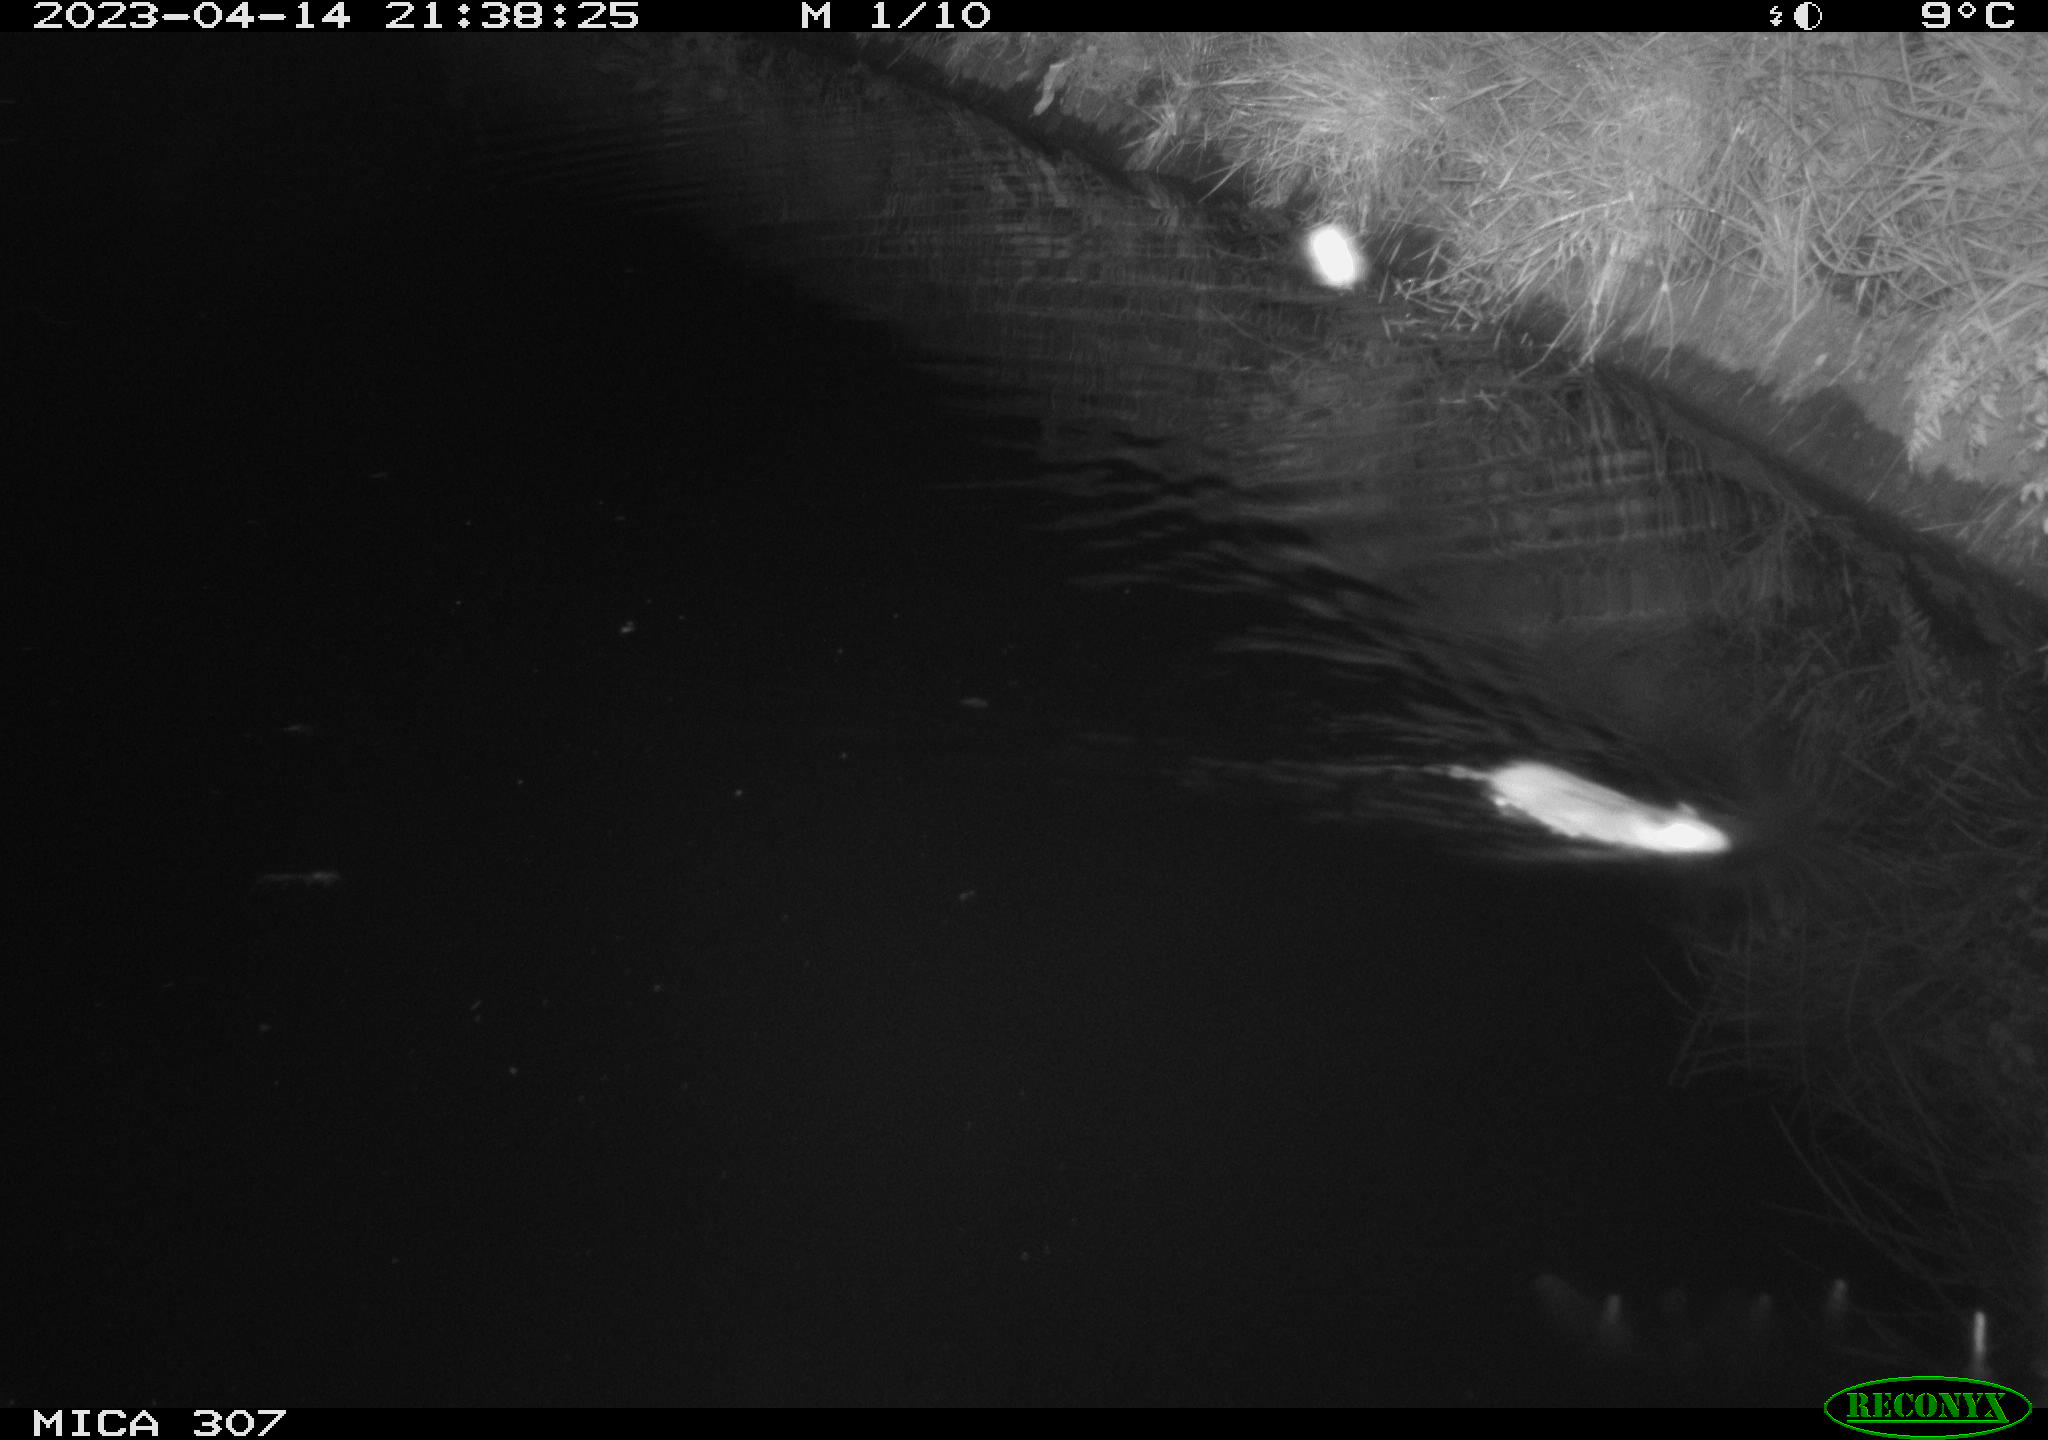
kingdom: Animalia
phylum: Chordata
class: Mammalia
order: Rodentia
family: Muridae
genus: Rattus
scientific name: Rattus norvegicus
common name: Brown rat
